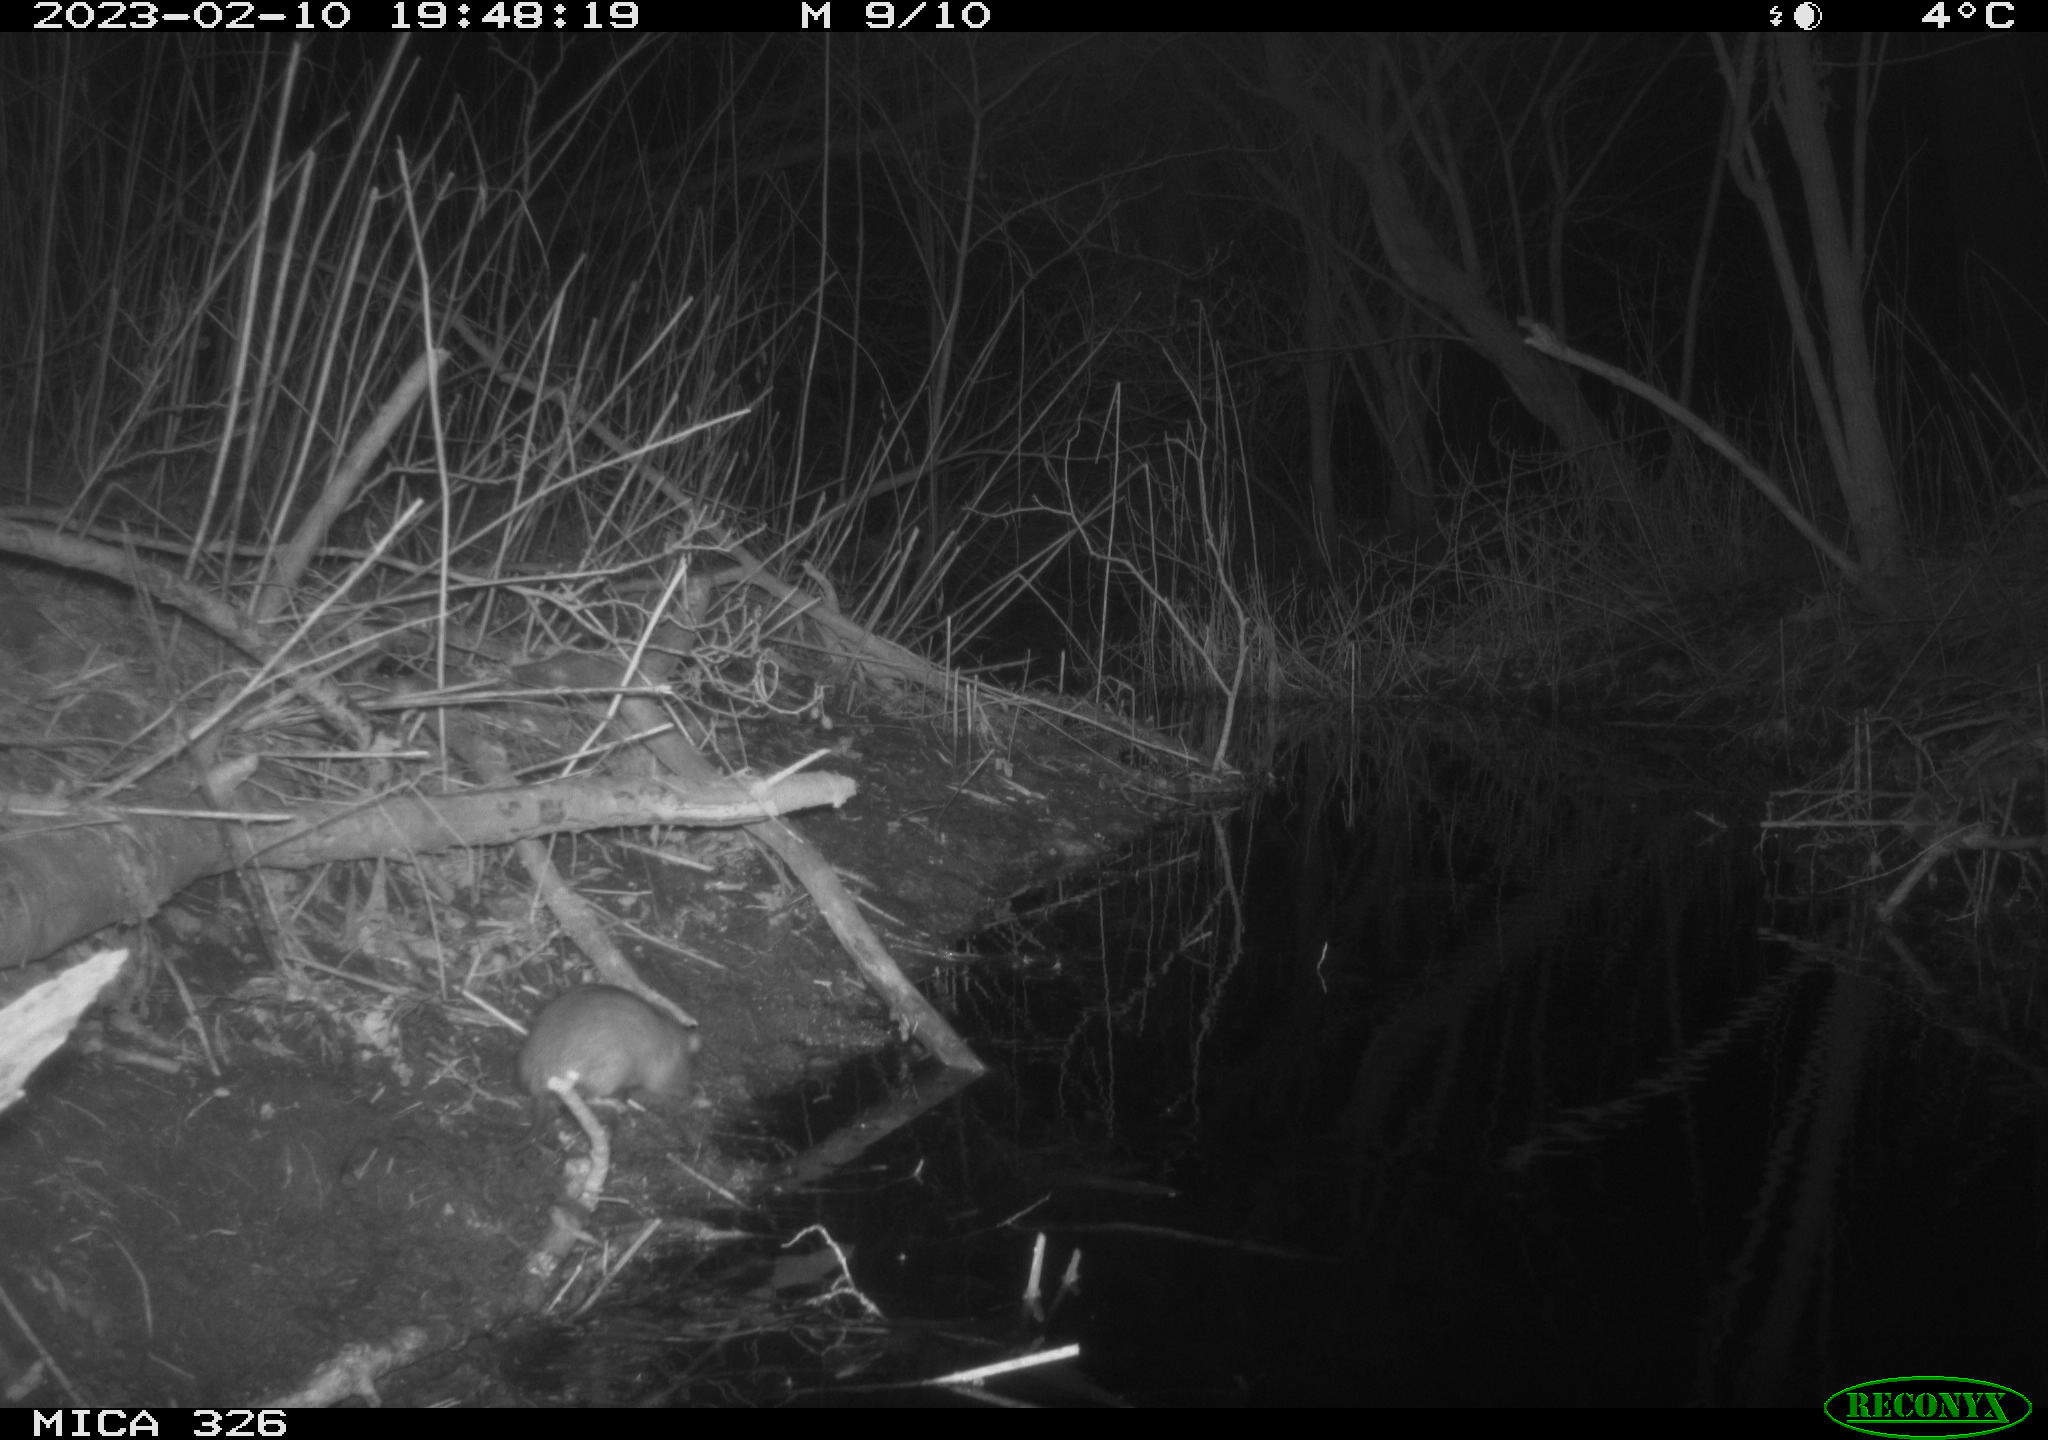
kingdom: Animalia
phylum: Chordata
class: Mammalia
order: Rodentia
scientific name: Rodentia
